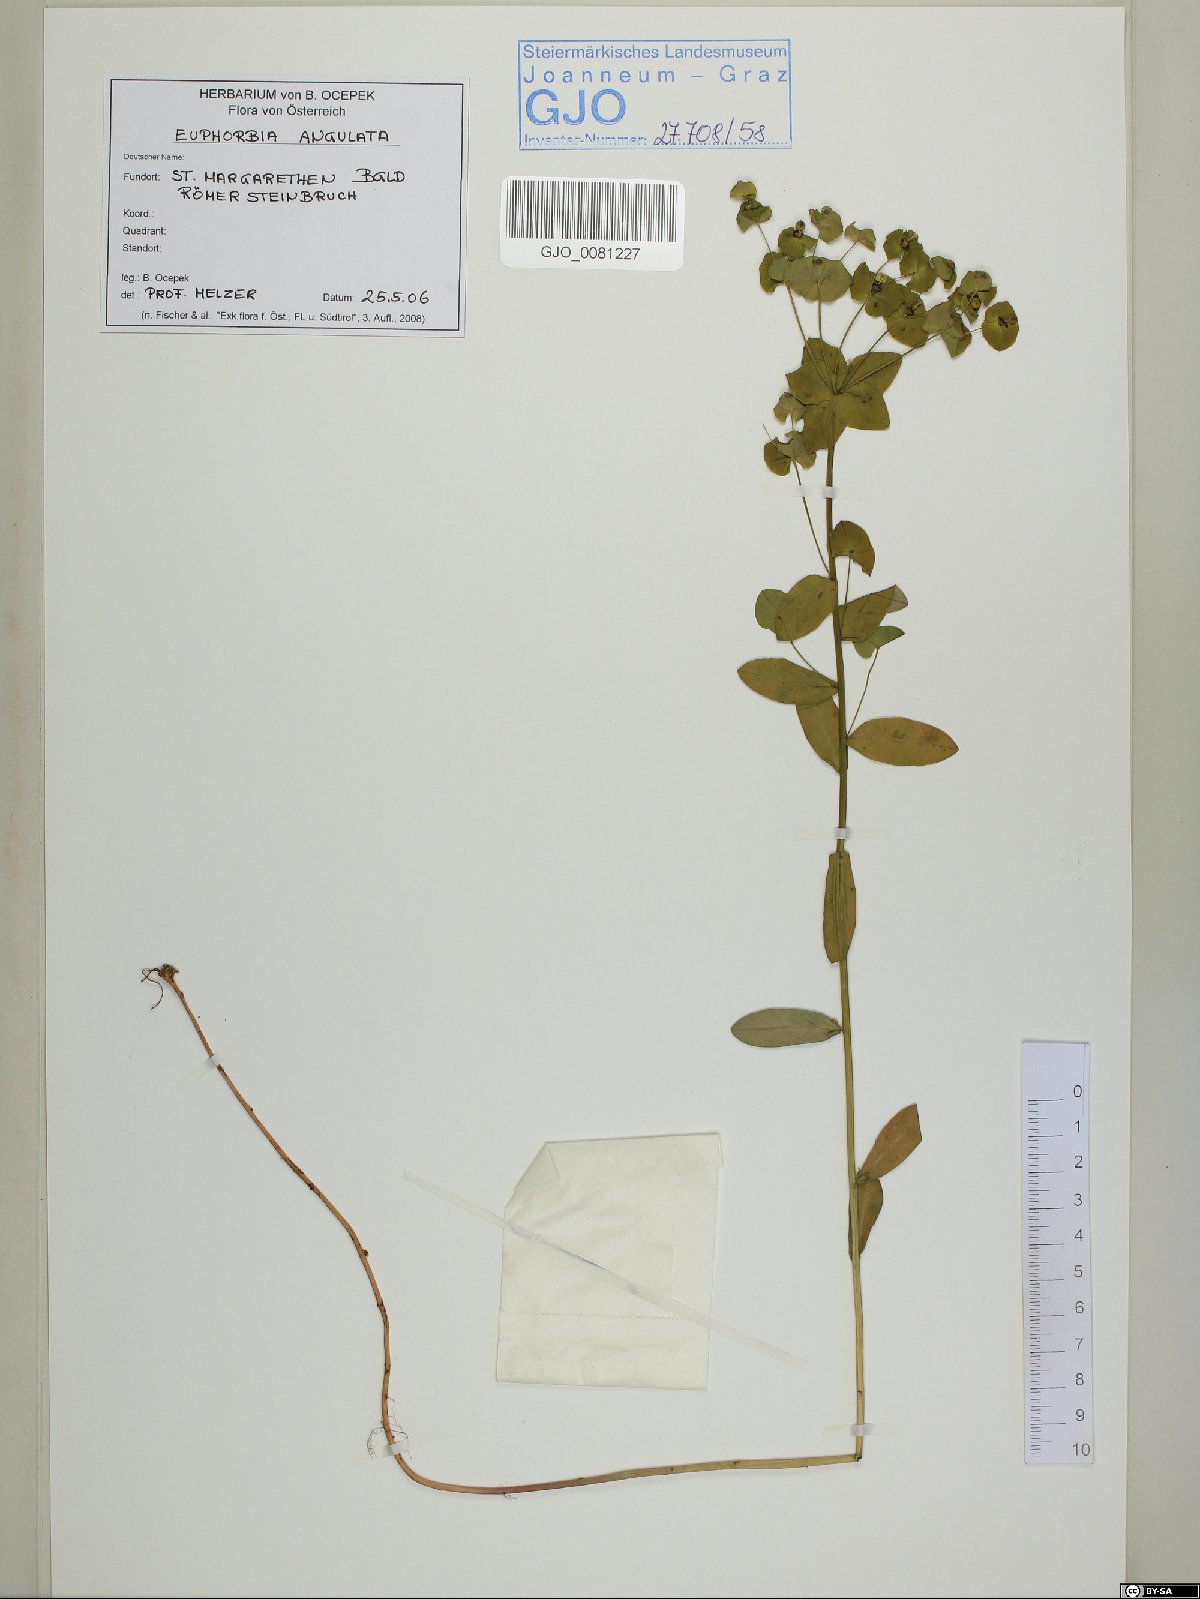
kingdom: Plantae
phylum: Tracheophyta
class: Magnoliopsida
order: Malpighiales
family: Euphorbiaceae
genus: Euphorbia
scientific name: Euphorbia angulata
